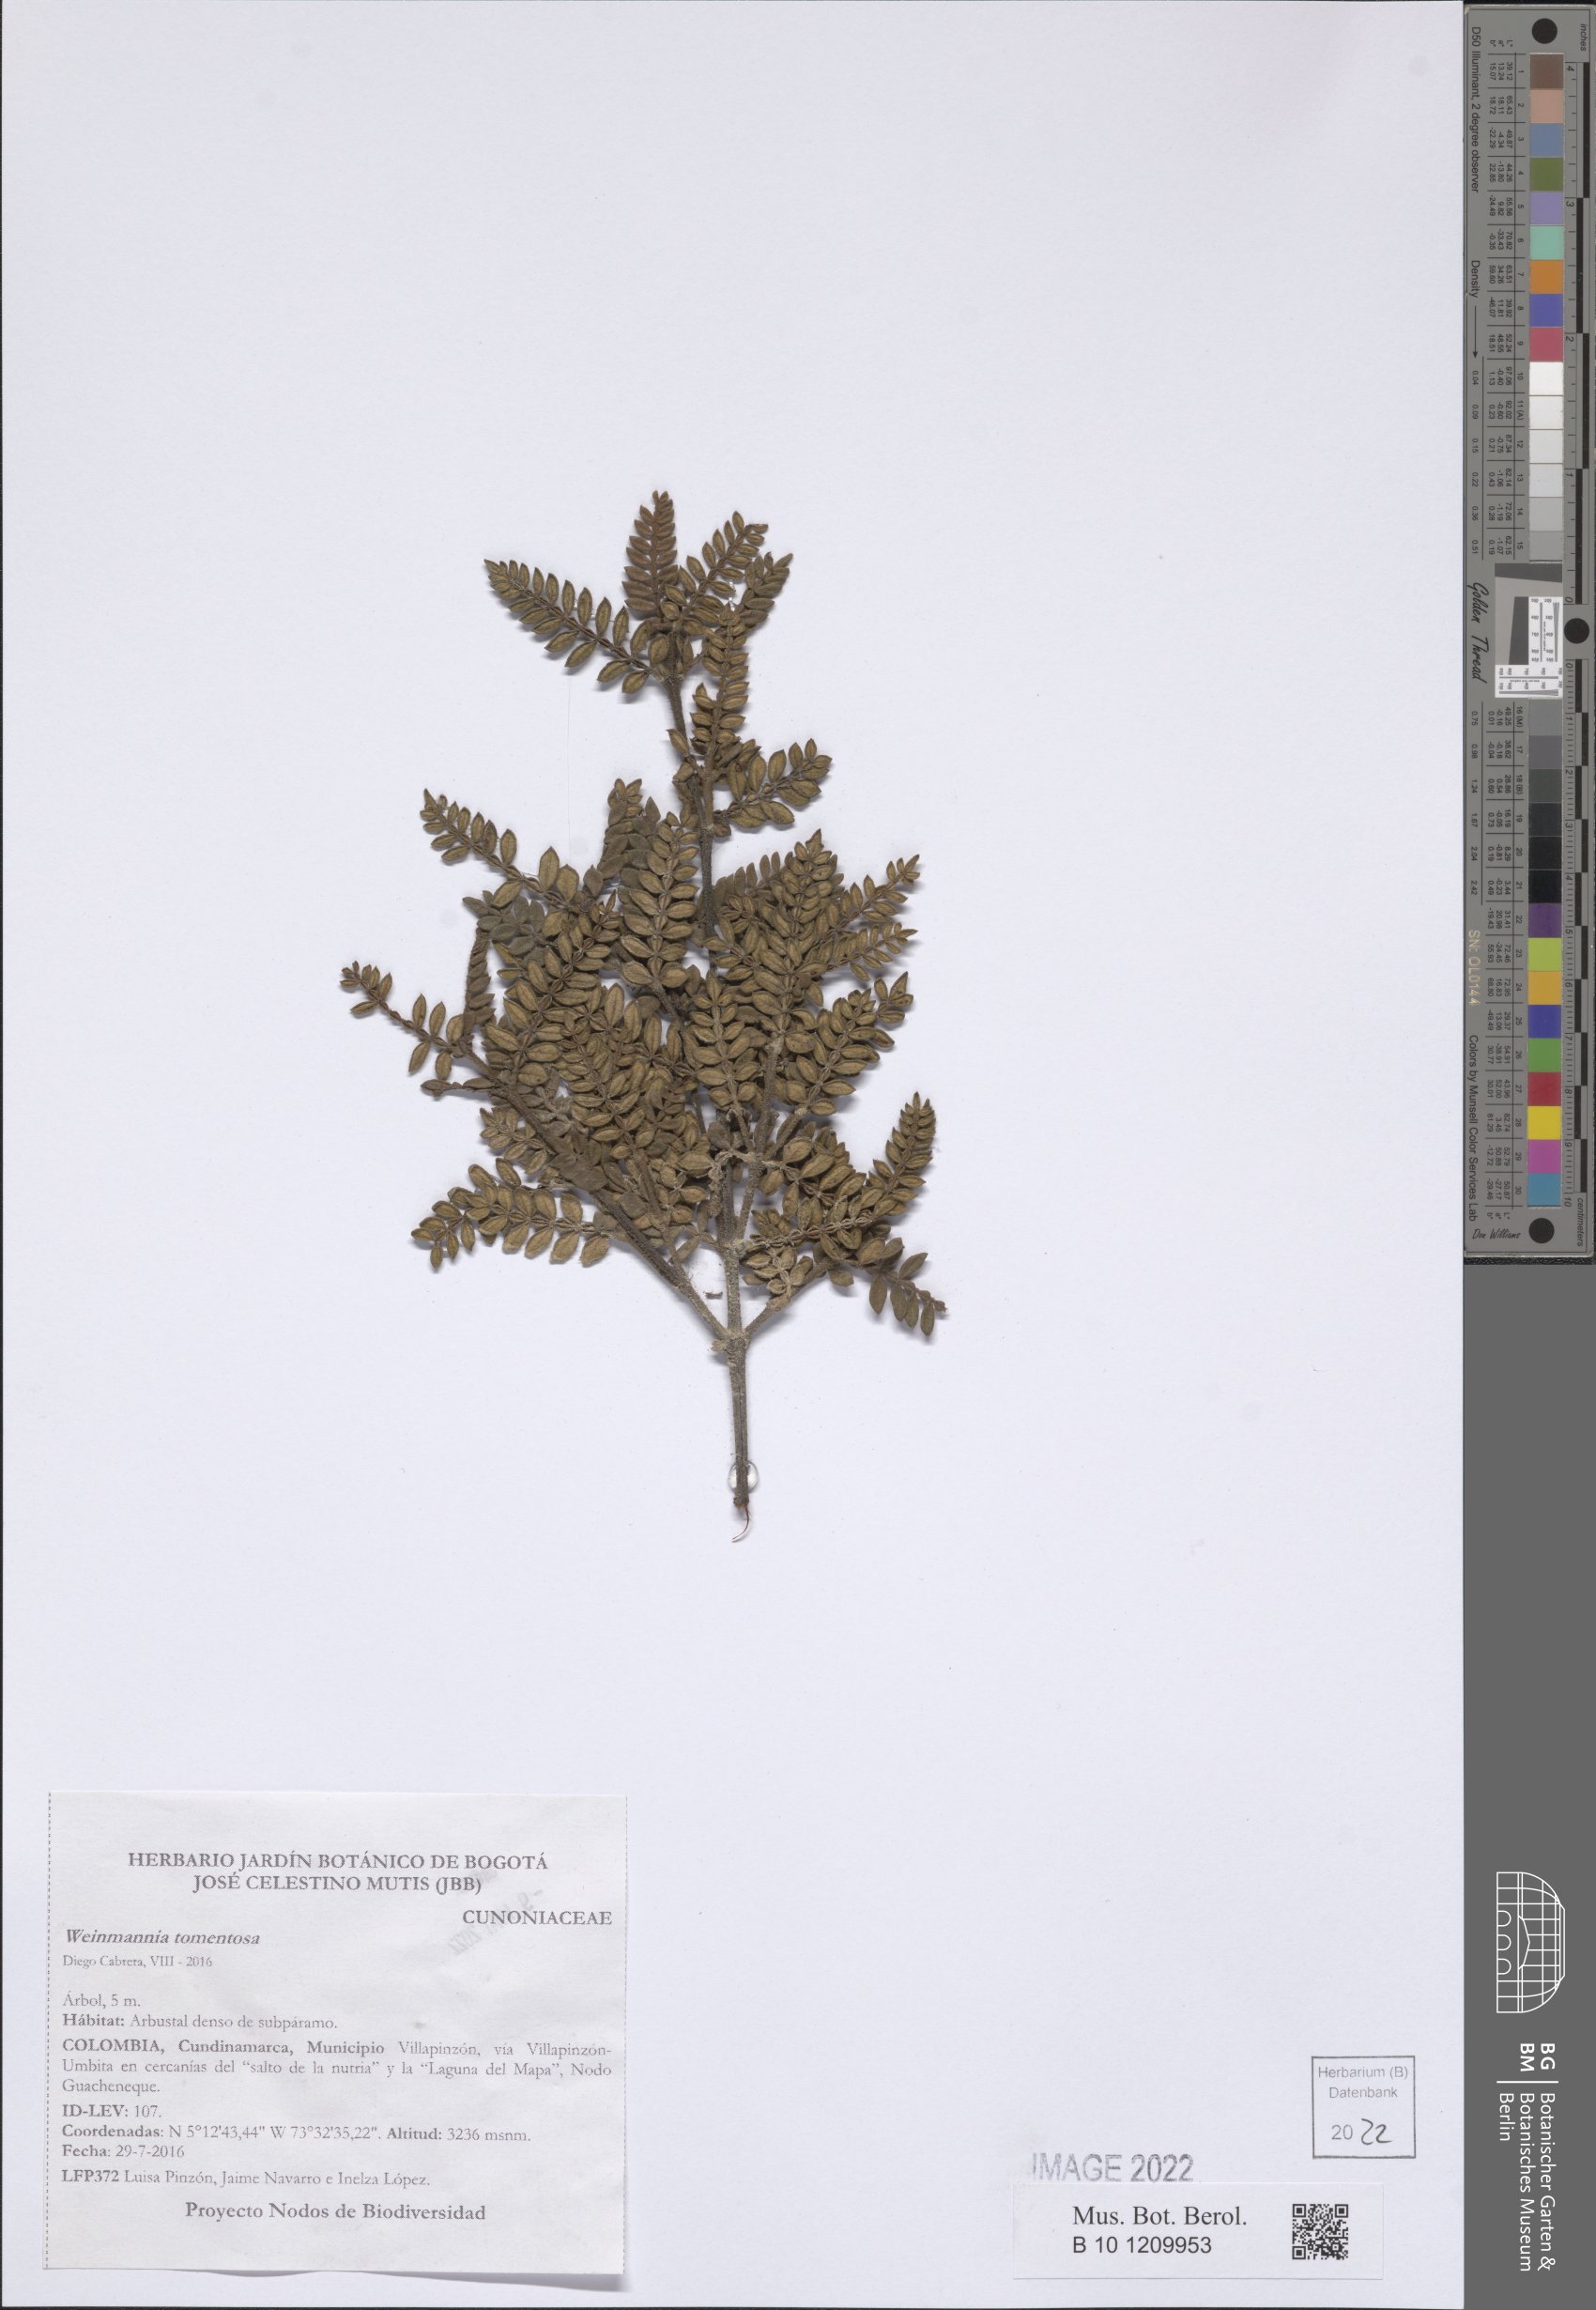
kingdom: Plantae
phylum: Tracheophyta
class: Magnoliopsida
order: Oxalidales
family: Cunoniaceae
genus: Weinmannia
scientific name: Weinmannia tomentosa
